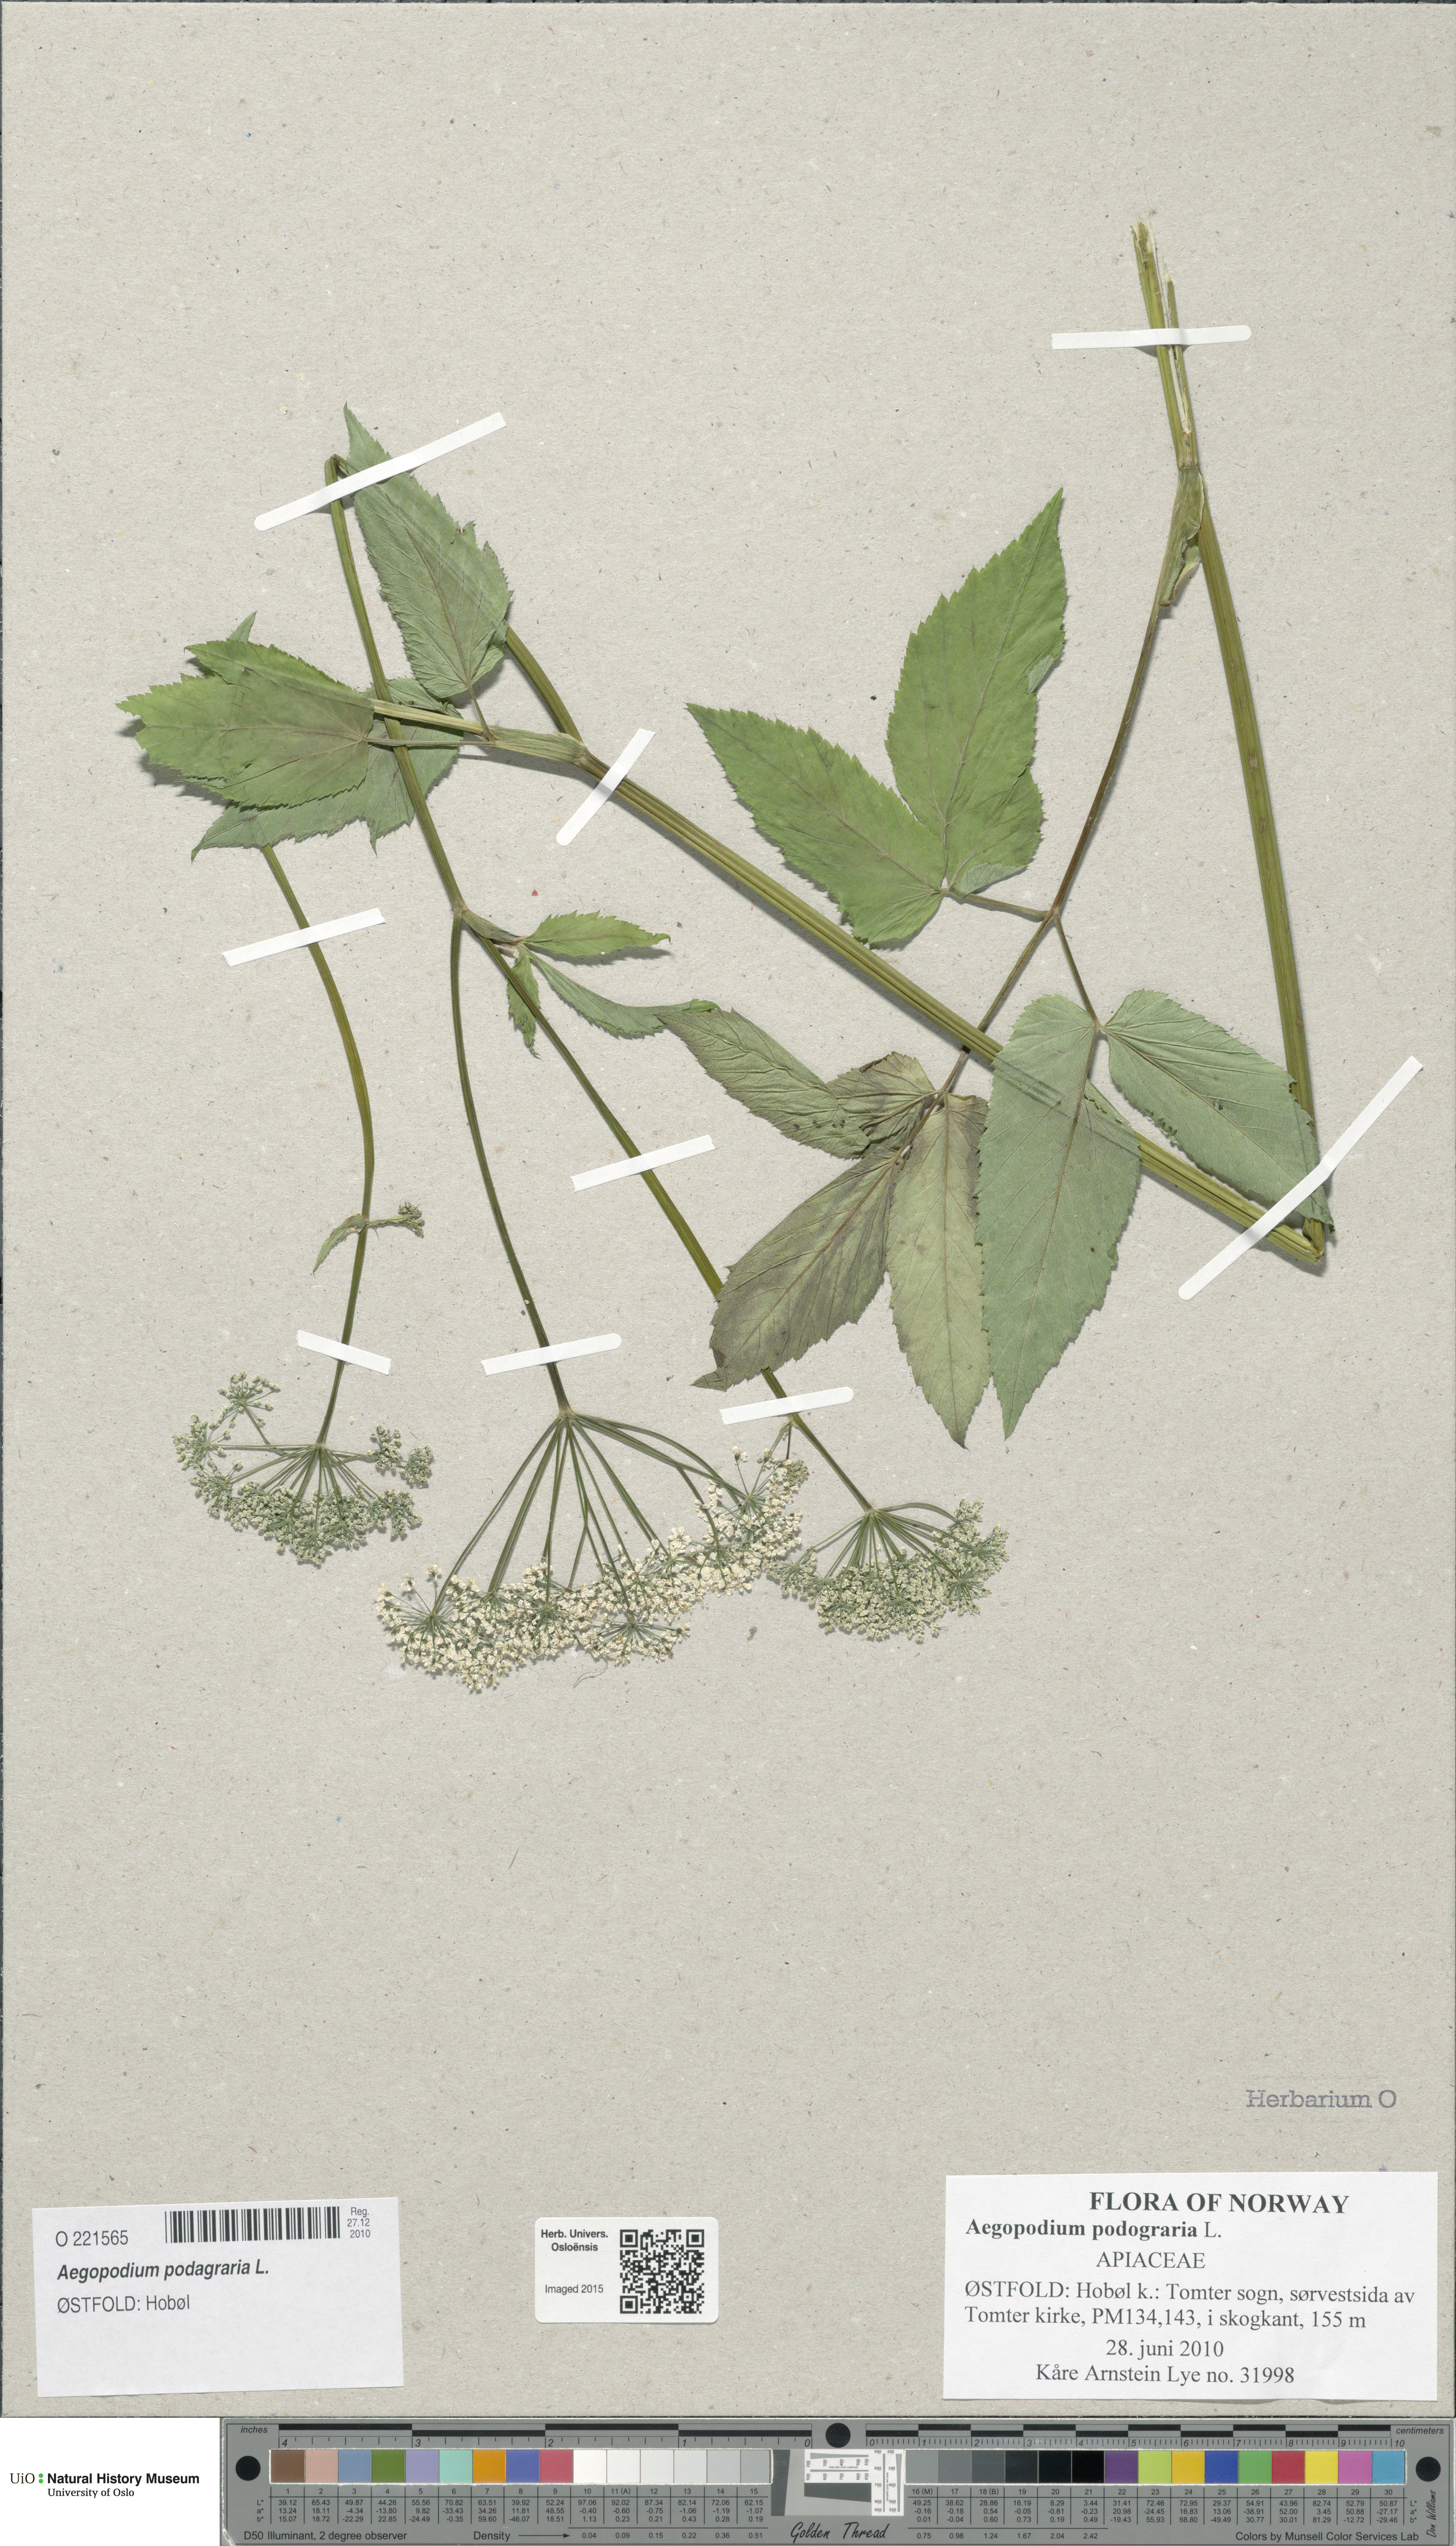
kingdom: Plantae
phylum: Tracheophyta
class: Magnoliopsida
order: Apiales
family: Apiaceae
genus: Aegopodium
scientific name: Aegopodium podagraria
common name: Ground-elder
